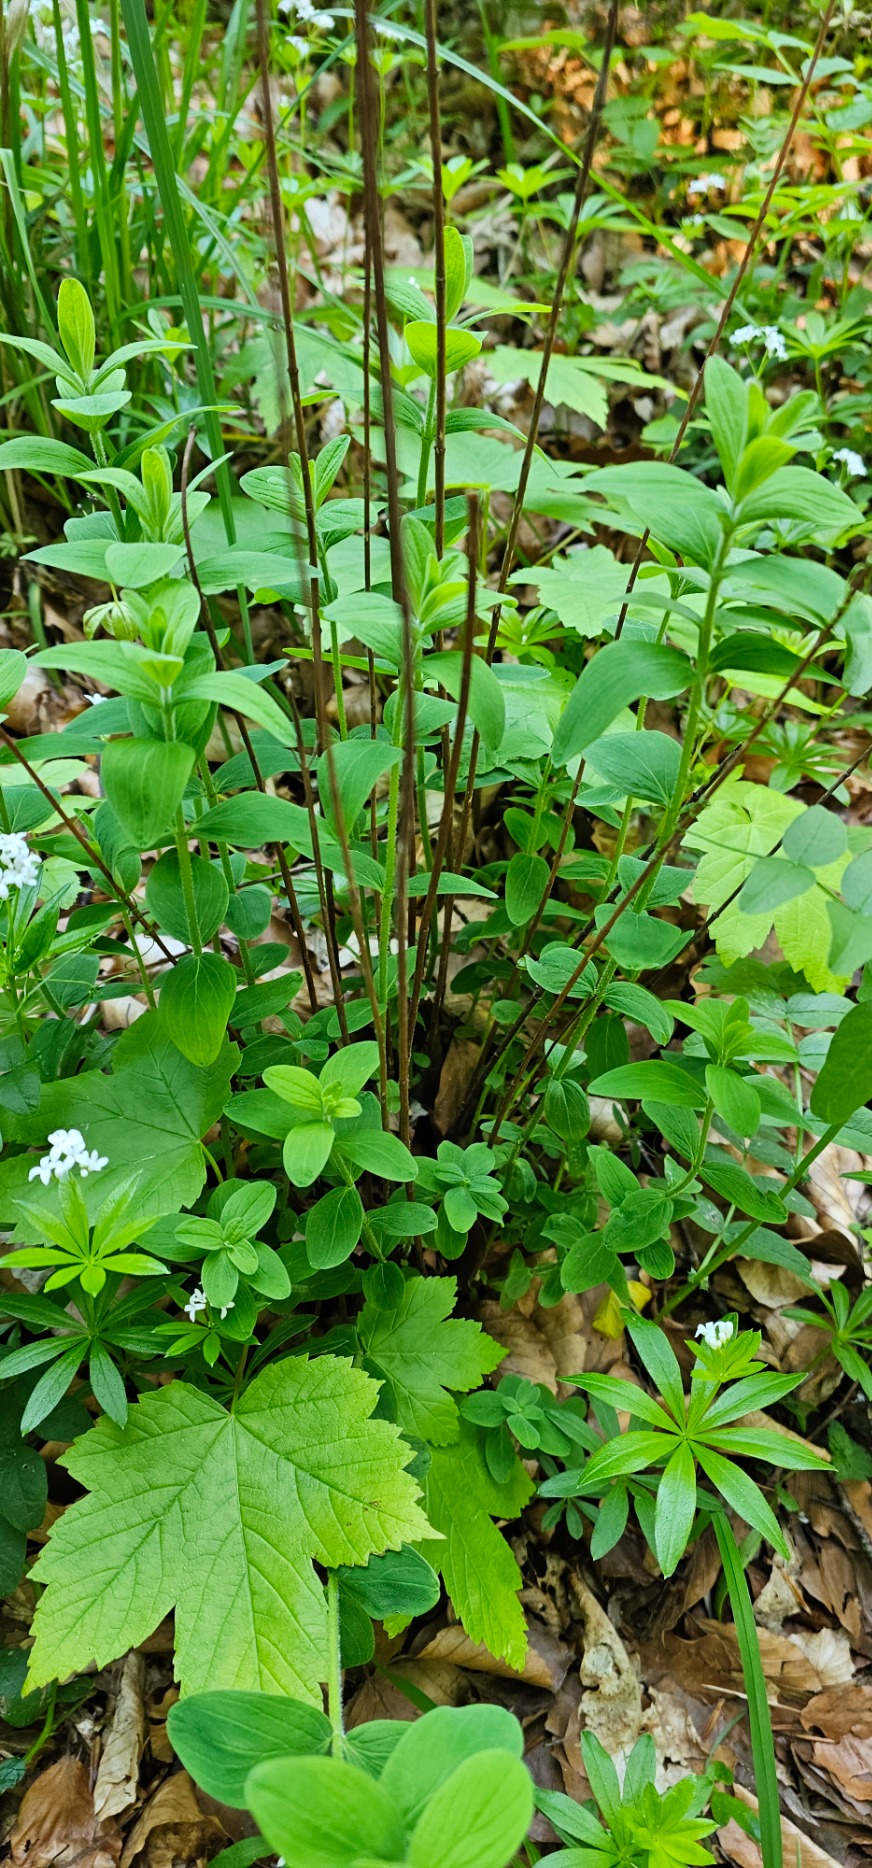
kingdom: Plantae
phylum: Tracheophyta
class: Magnoliopsida
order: Malpighiales
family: Hypericaceae
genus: Hypericum
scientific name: Hypericum hirsutum
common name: Lådden perikon
